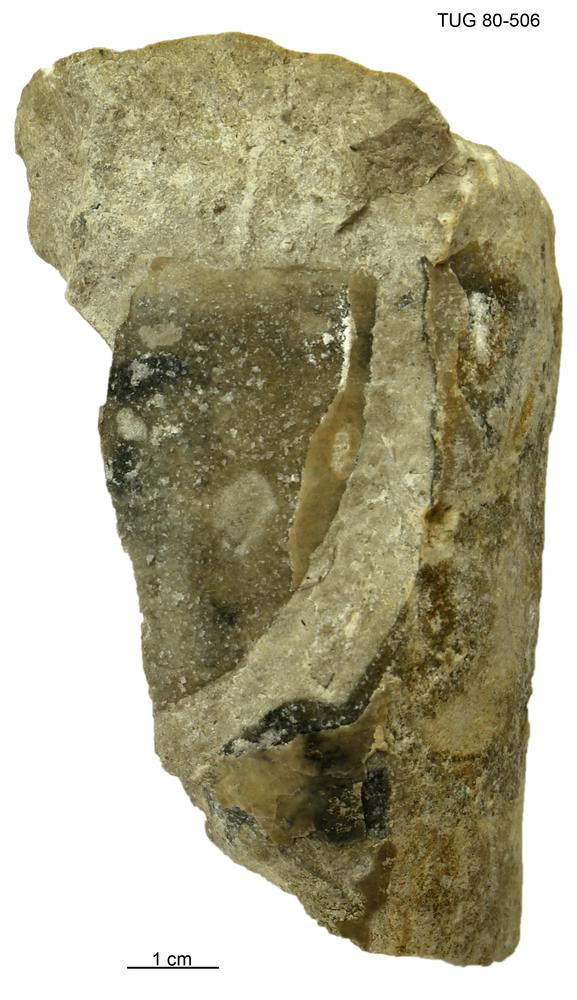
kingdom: Animalia
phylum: Mollusca
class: Cephalopoda
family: Protophragmoceratidae
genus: Protophragmoceras
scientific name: Protophragmoceras
